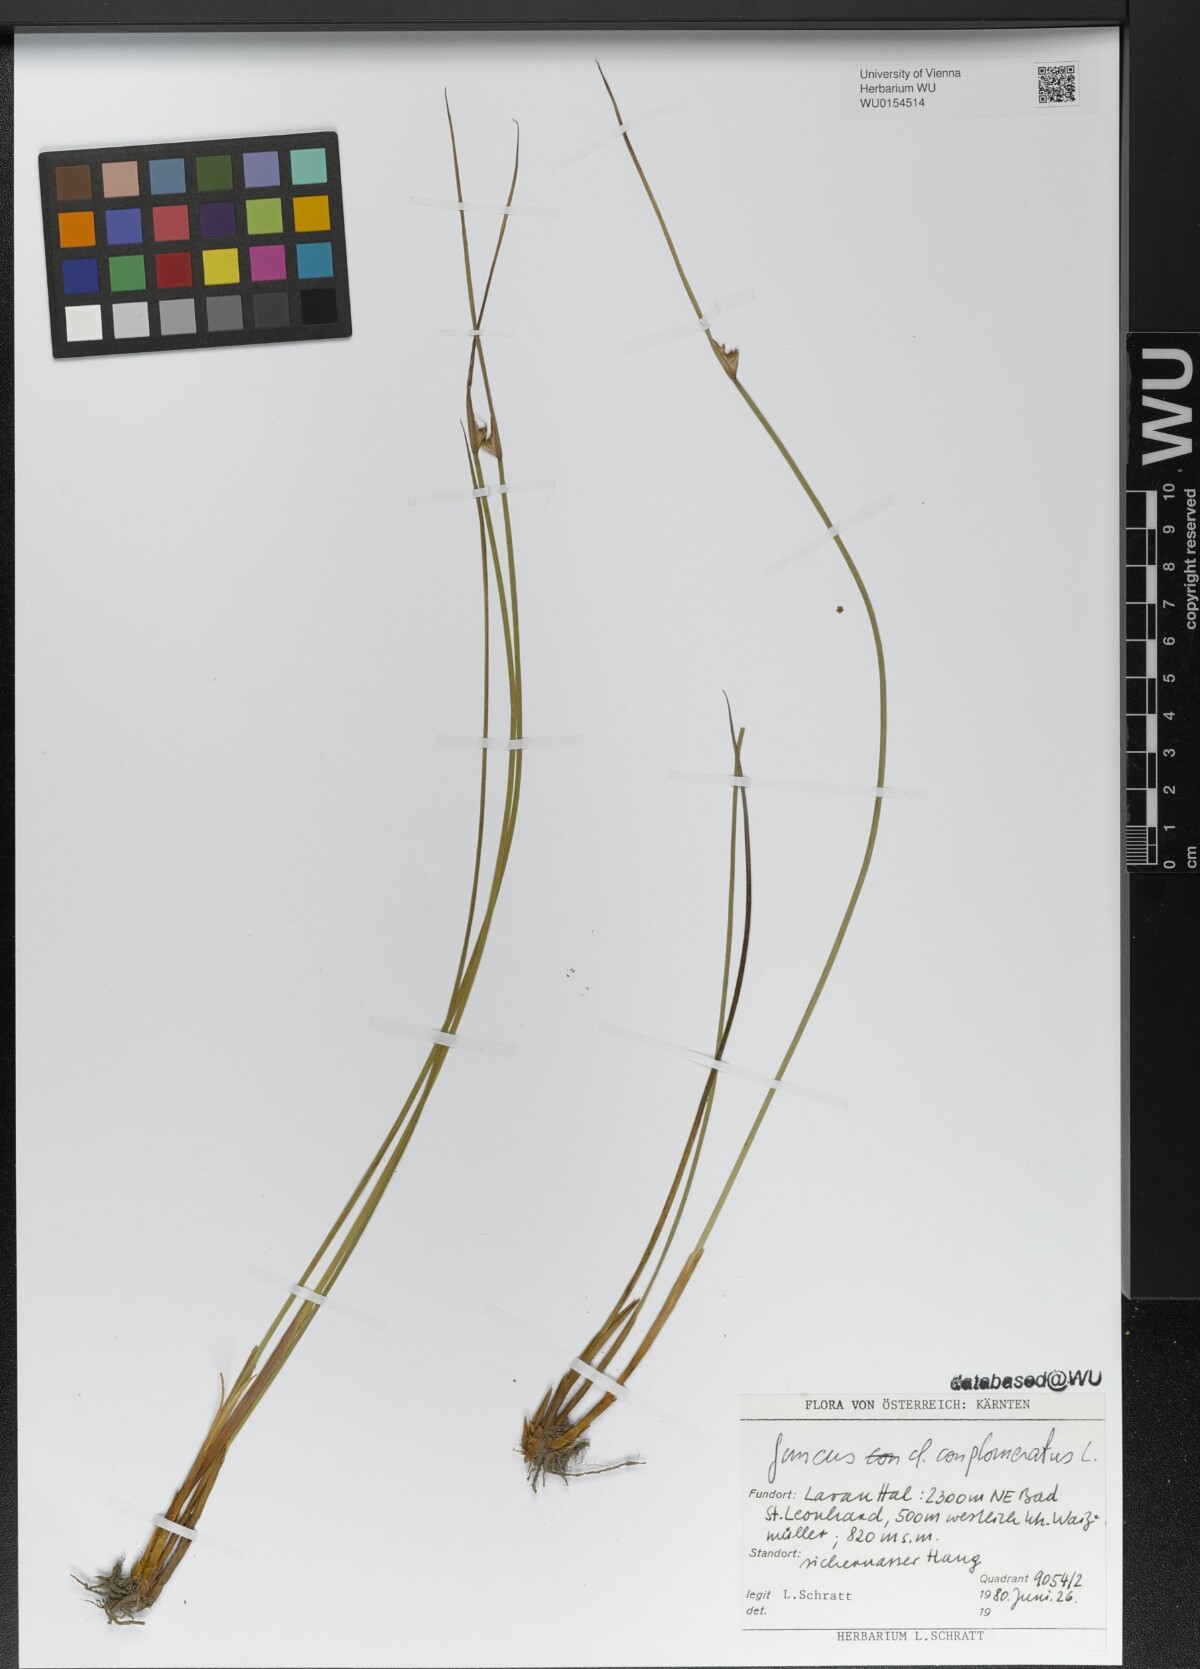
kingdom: Plantae
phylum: Tracheophyta
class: Liliopsida
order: Poales
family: Juncaceae
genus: Juncus
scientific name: Juncus conglomeratus
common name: Compact rush
